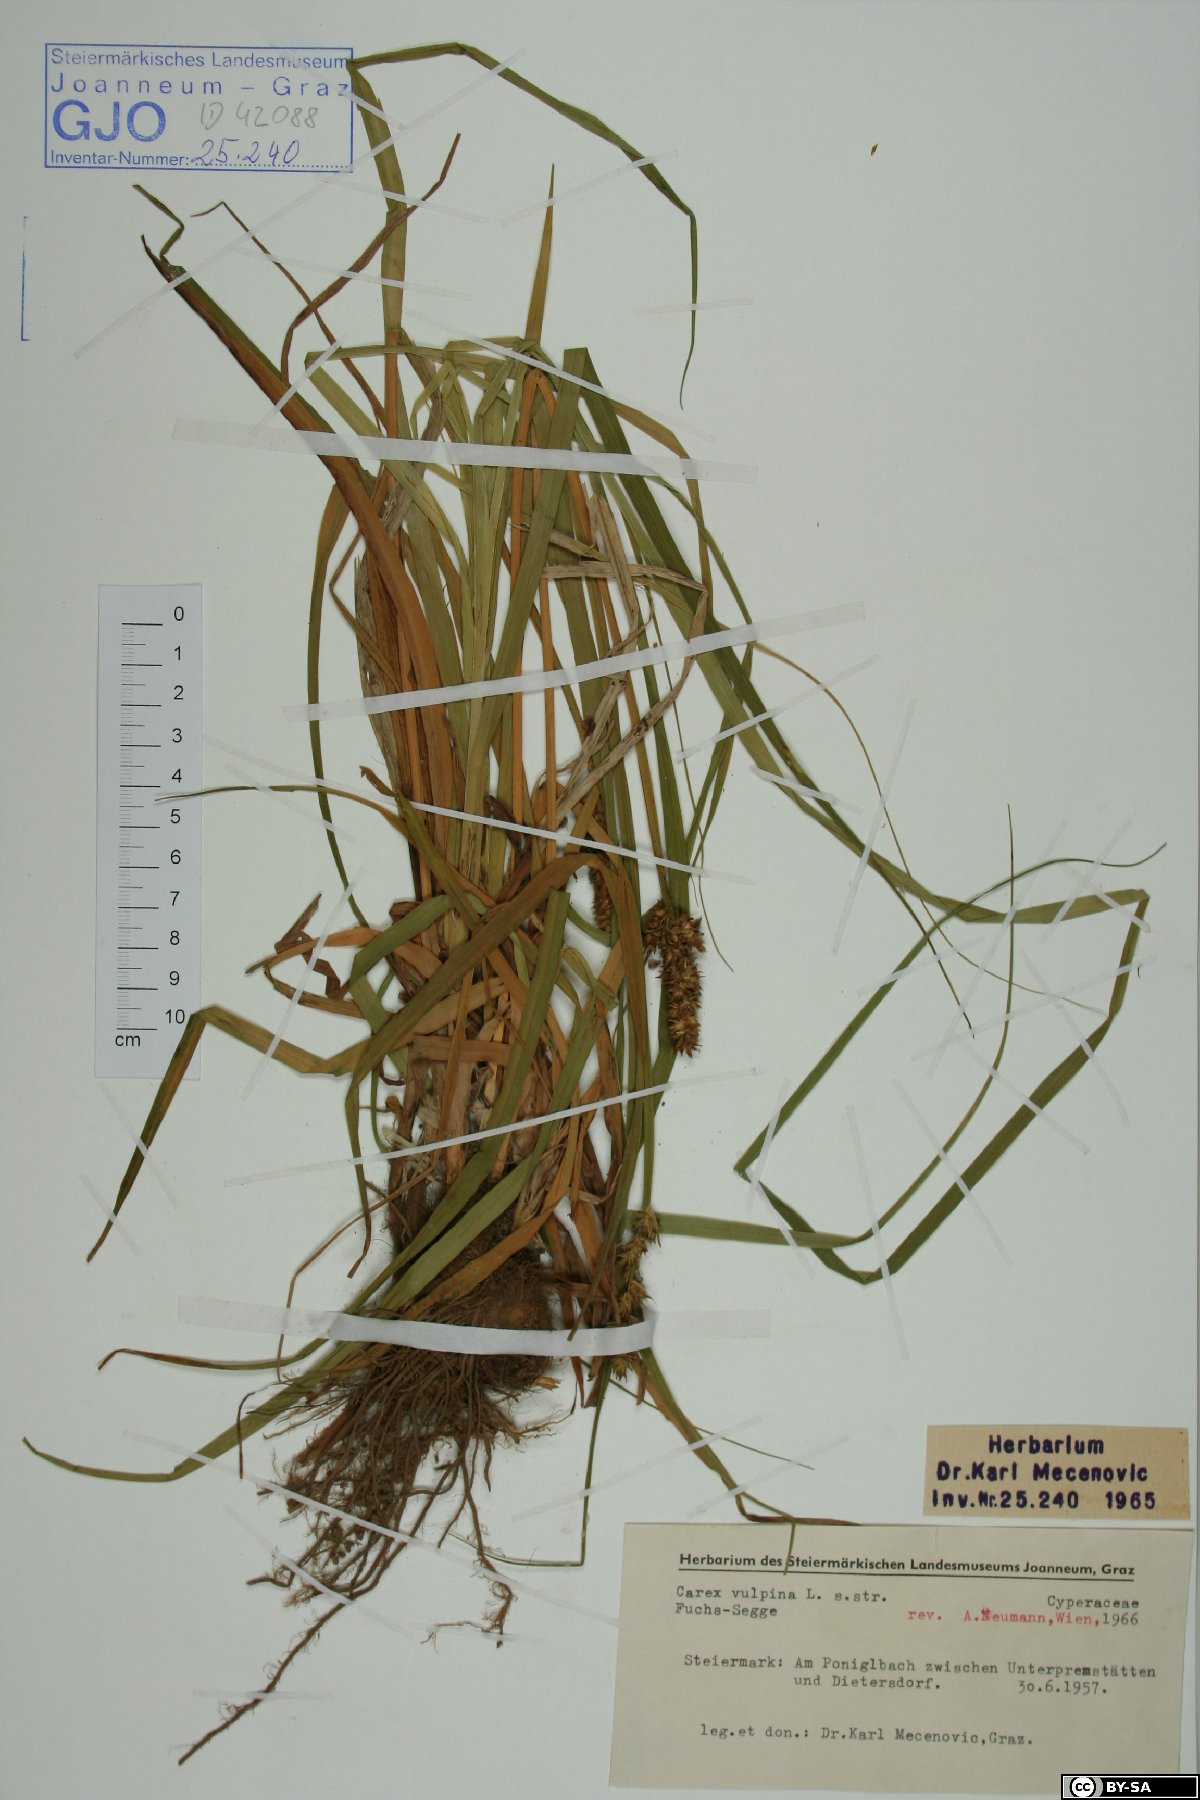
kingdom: Plantae
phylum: Tracheophyta
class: Liliopsida
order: Poales
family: Cyperaceae
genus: Carex
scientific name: Carex vulpina
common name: True fox-sedge
